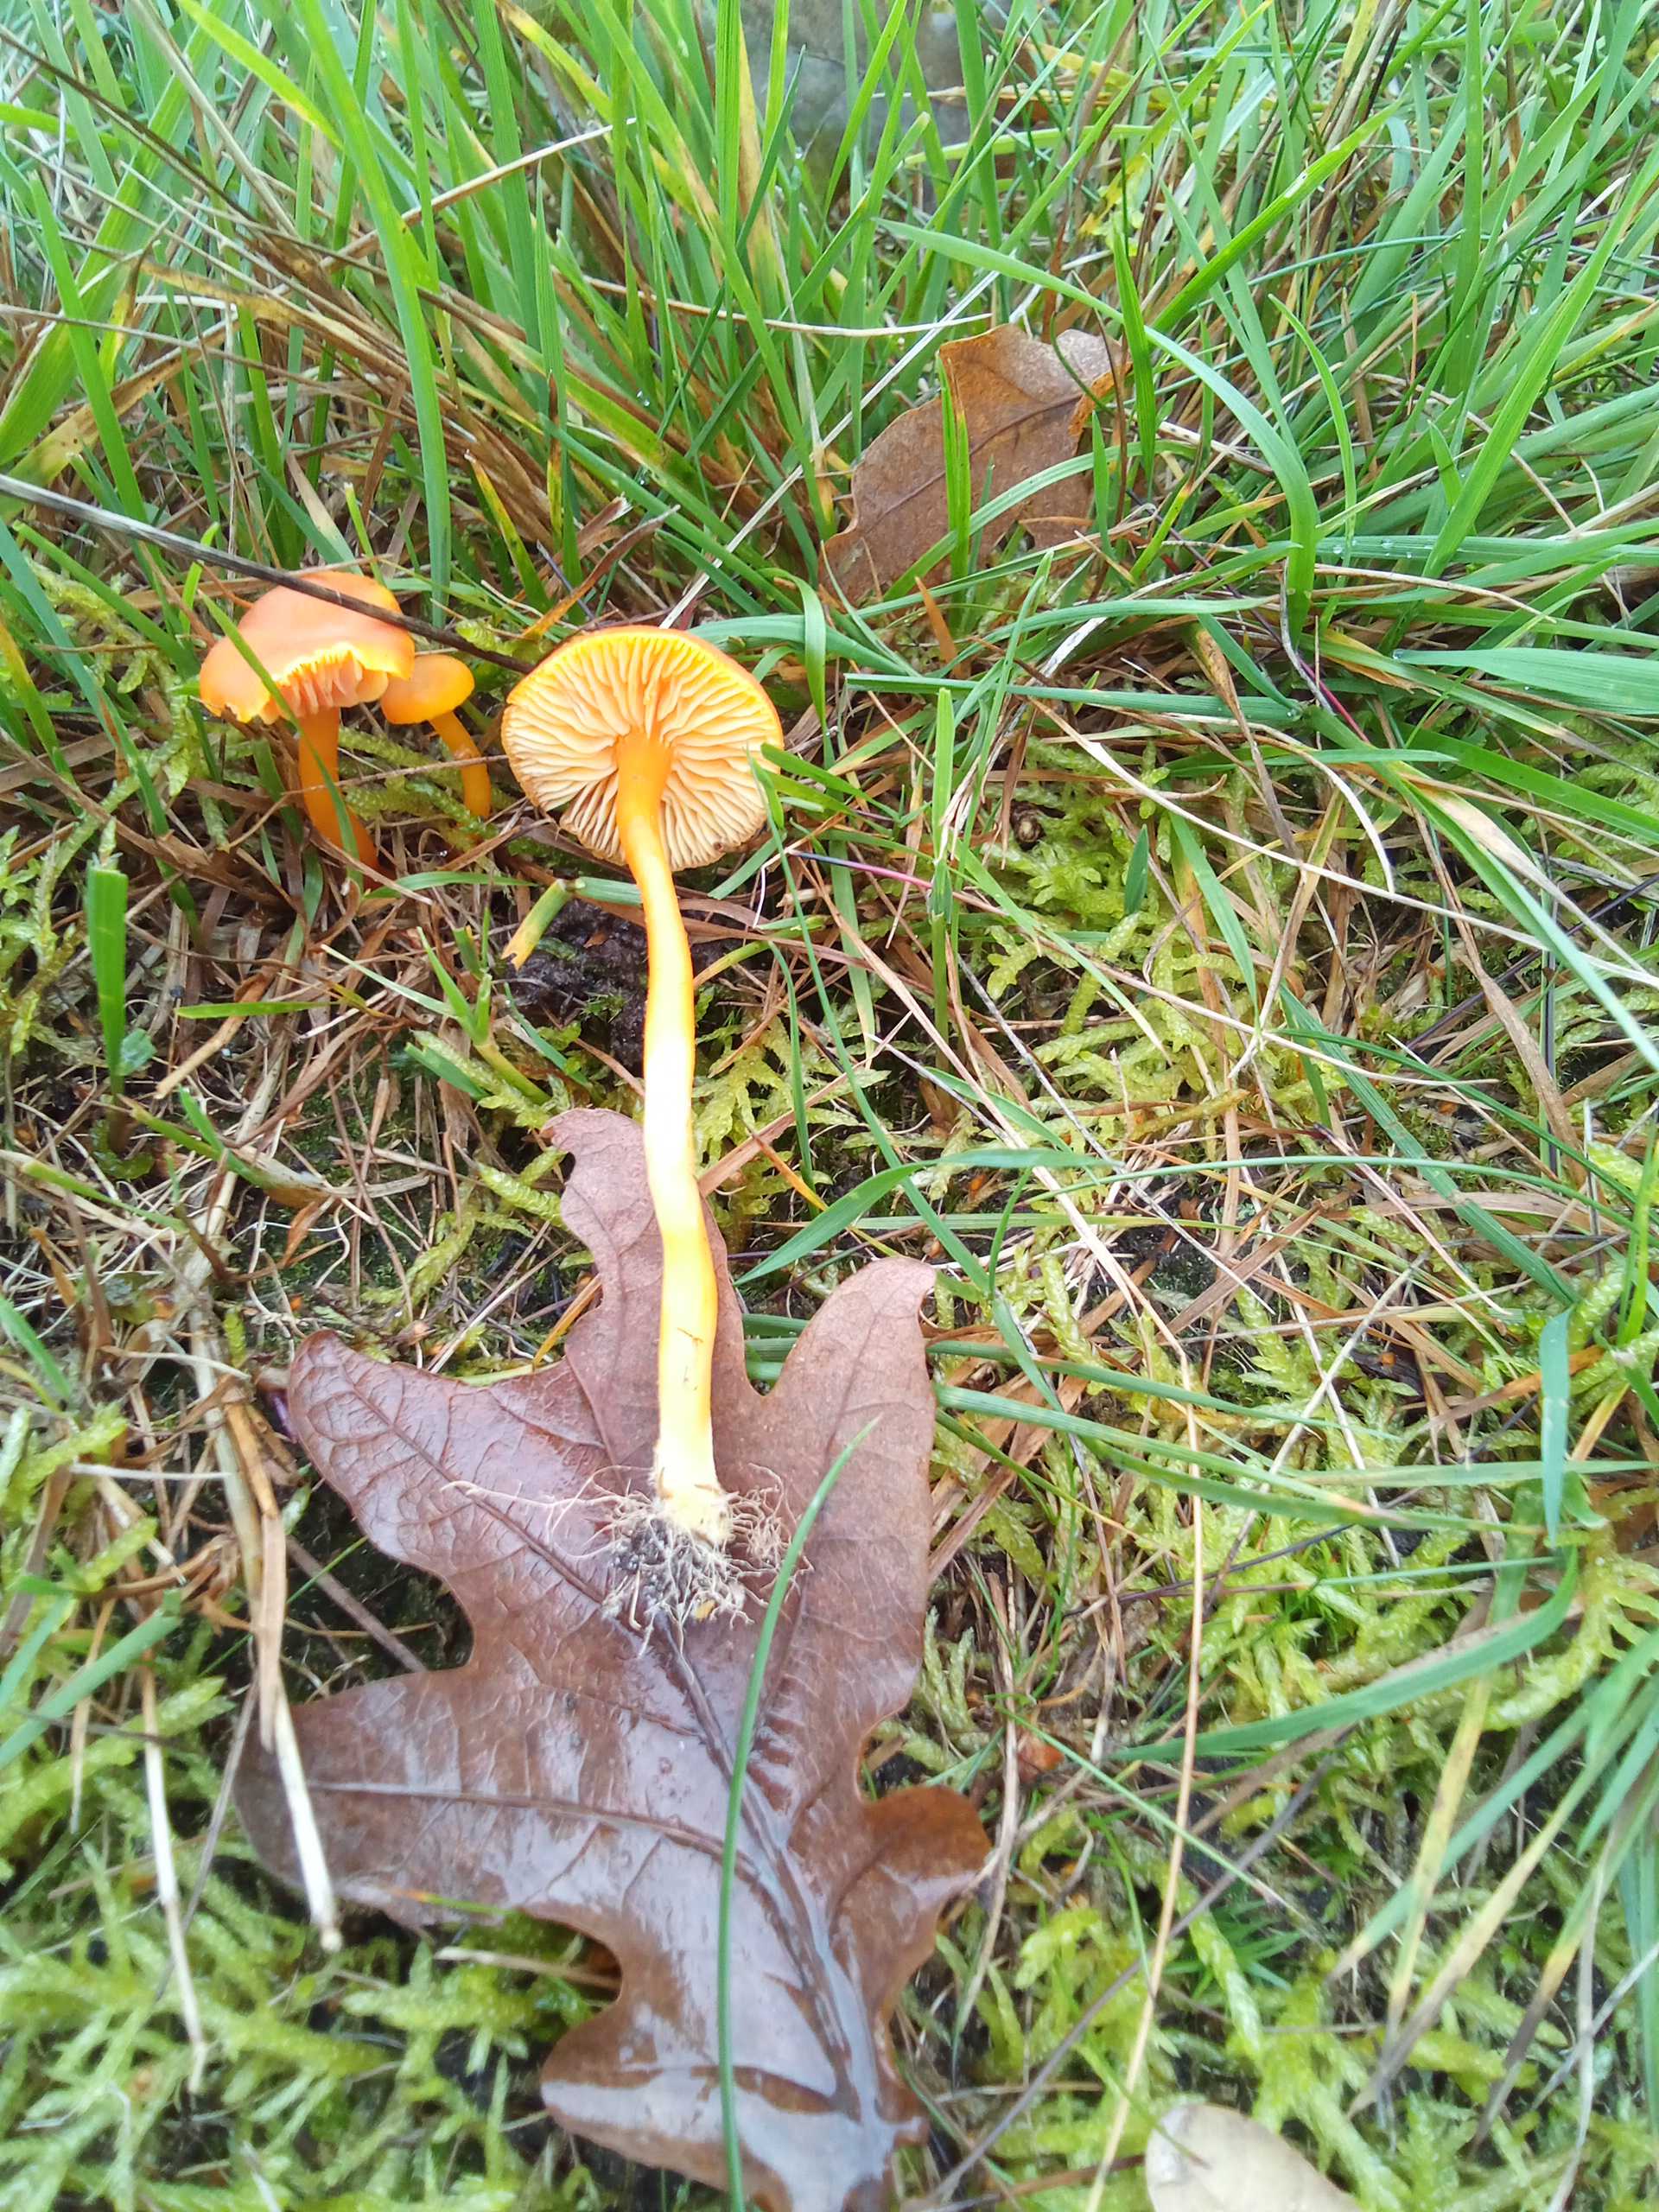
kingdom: Fungi
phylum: Basidiomycota
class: Agaricomycetes
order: Agaricales
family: Hygrophoraceae
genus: Hygrocybe
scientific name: Hygrocybe miniata
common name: mønje-vokshat
